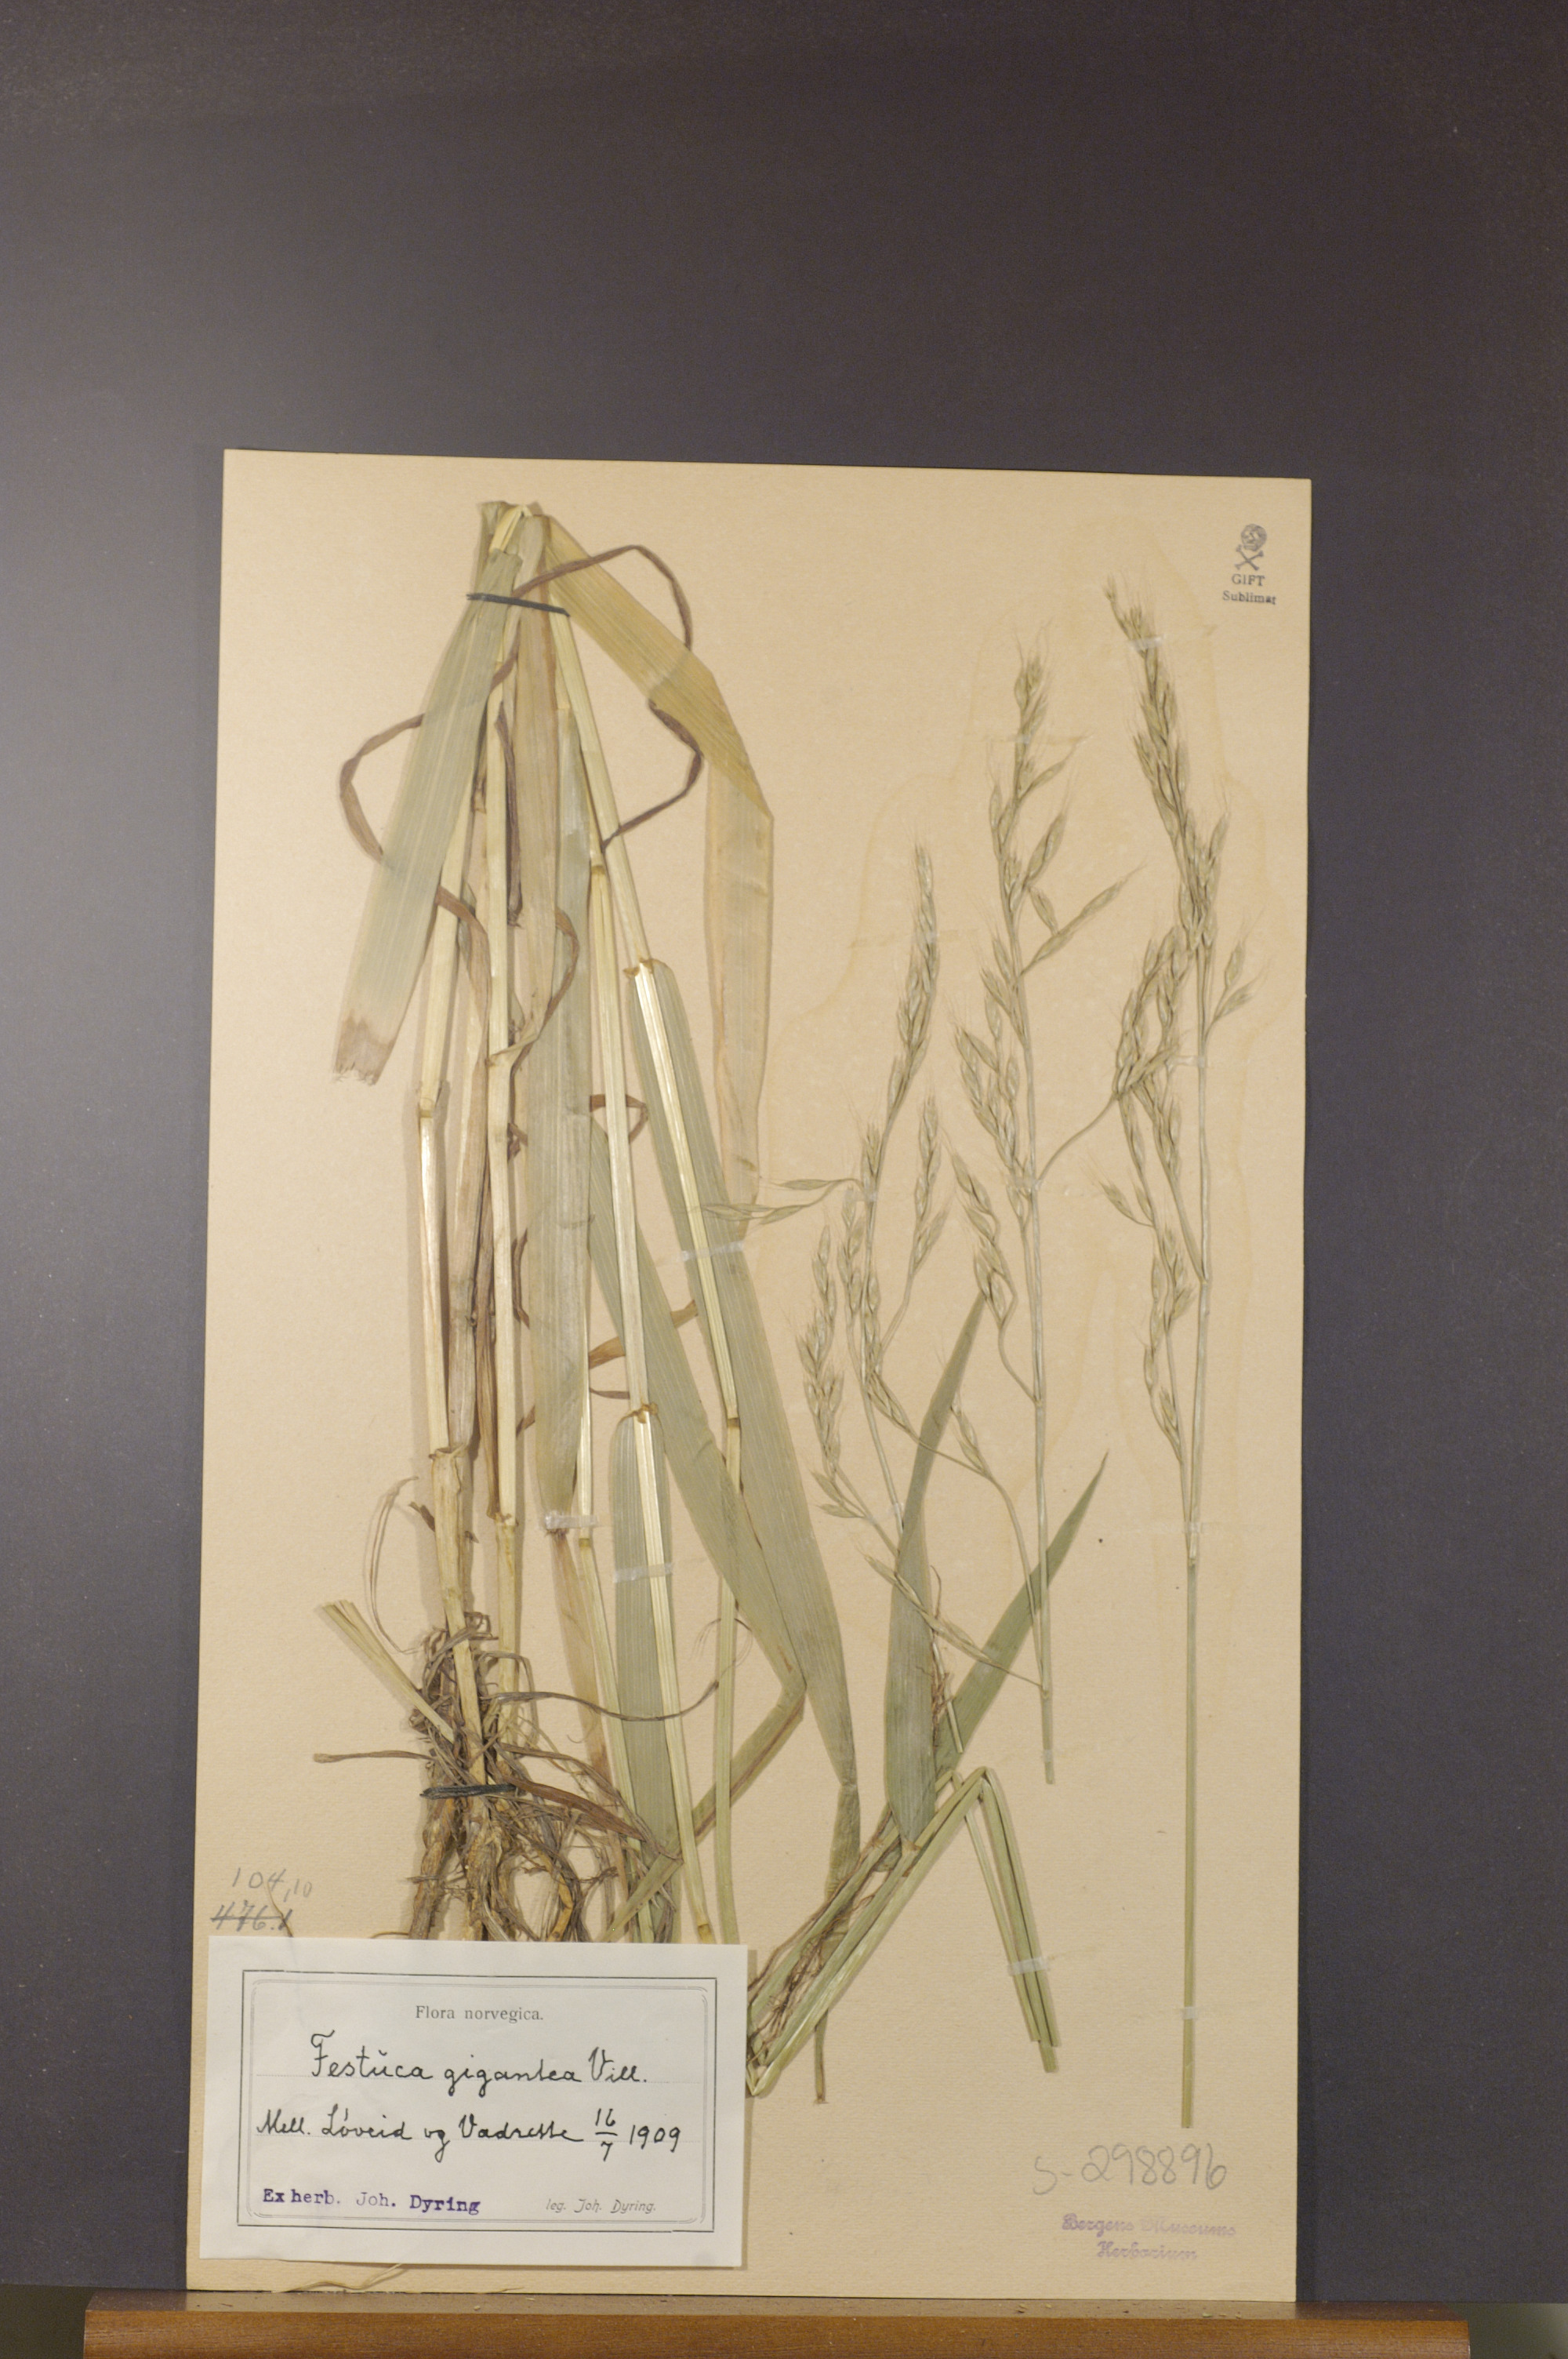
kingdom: Plantae
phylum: Tracheophyta
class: Liliopsida
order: Poales
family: Poaceae
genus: Lolium
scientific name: Lolium giganteum
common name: Giant fescue
